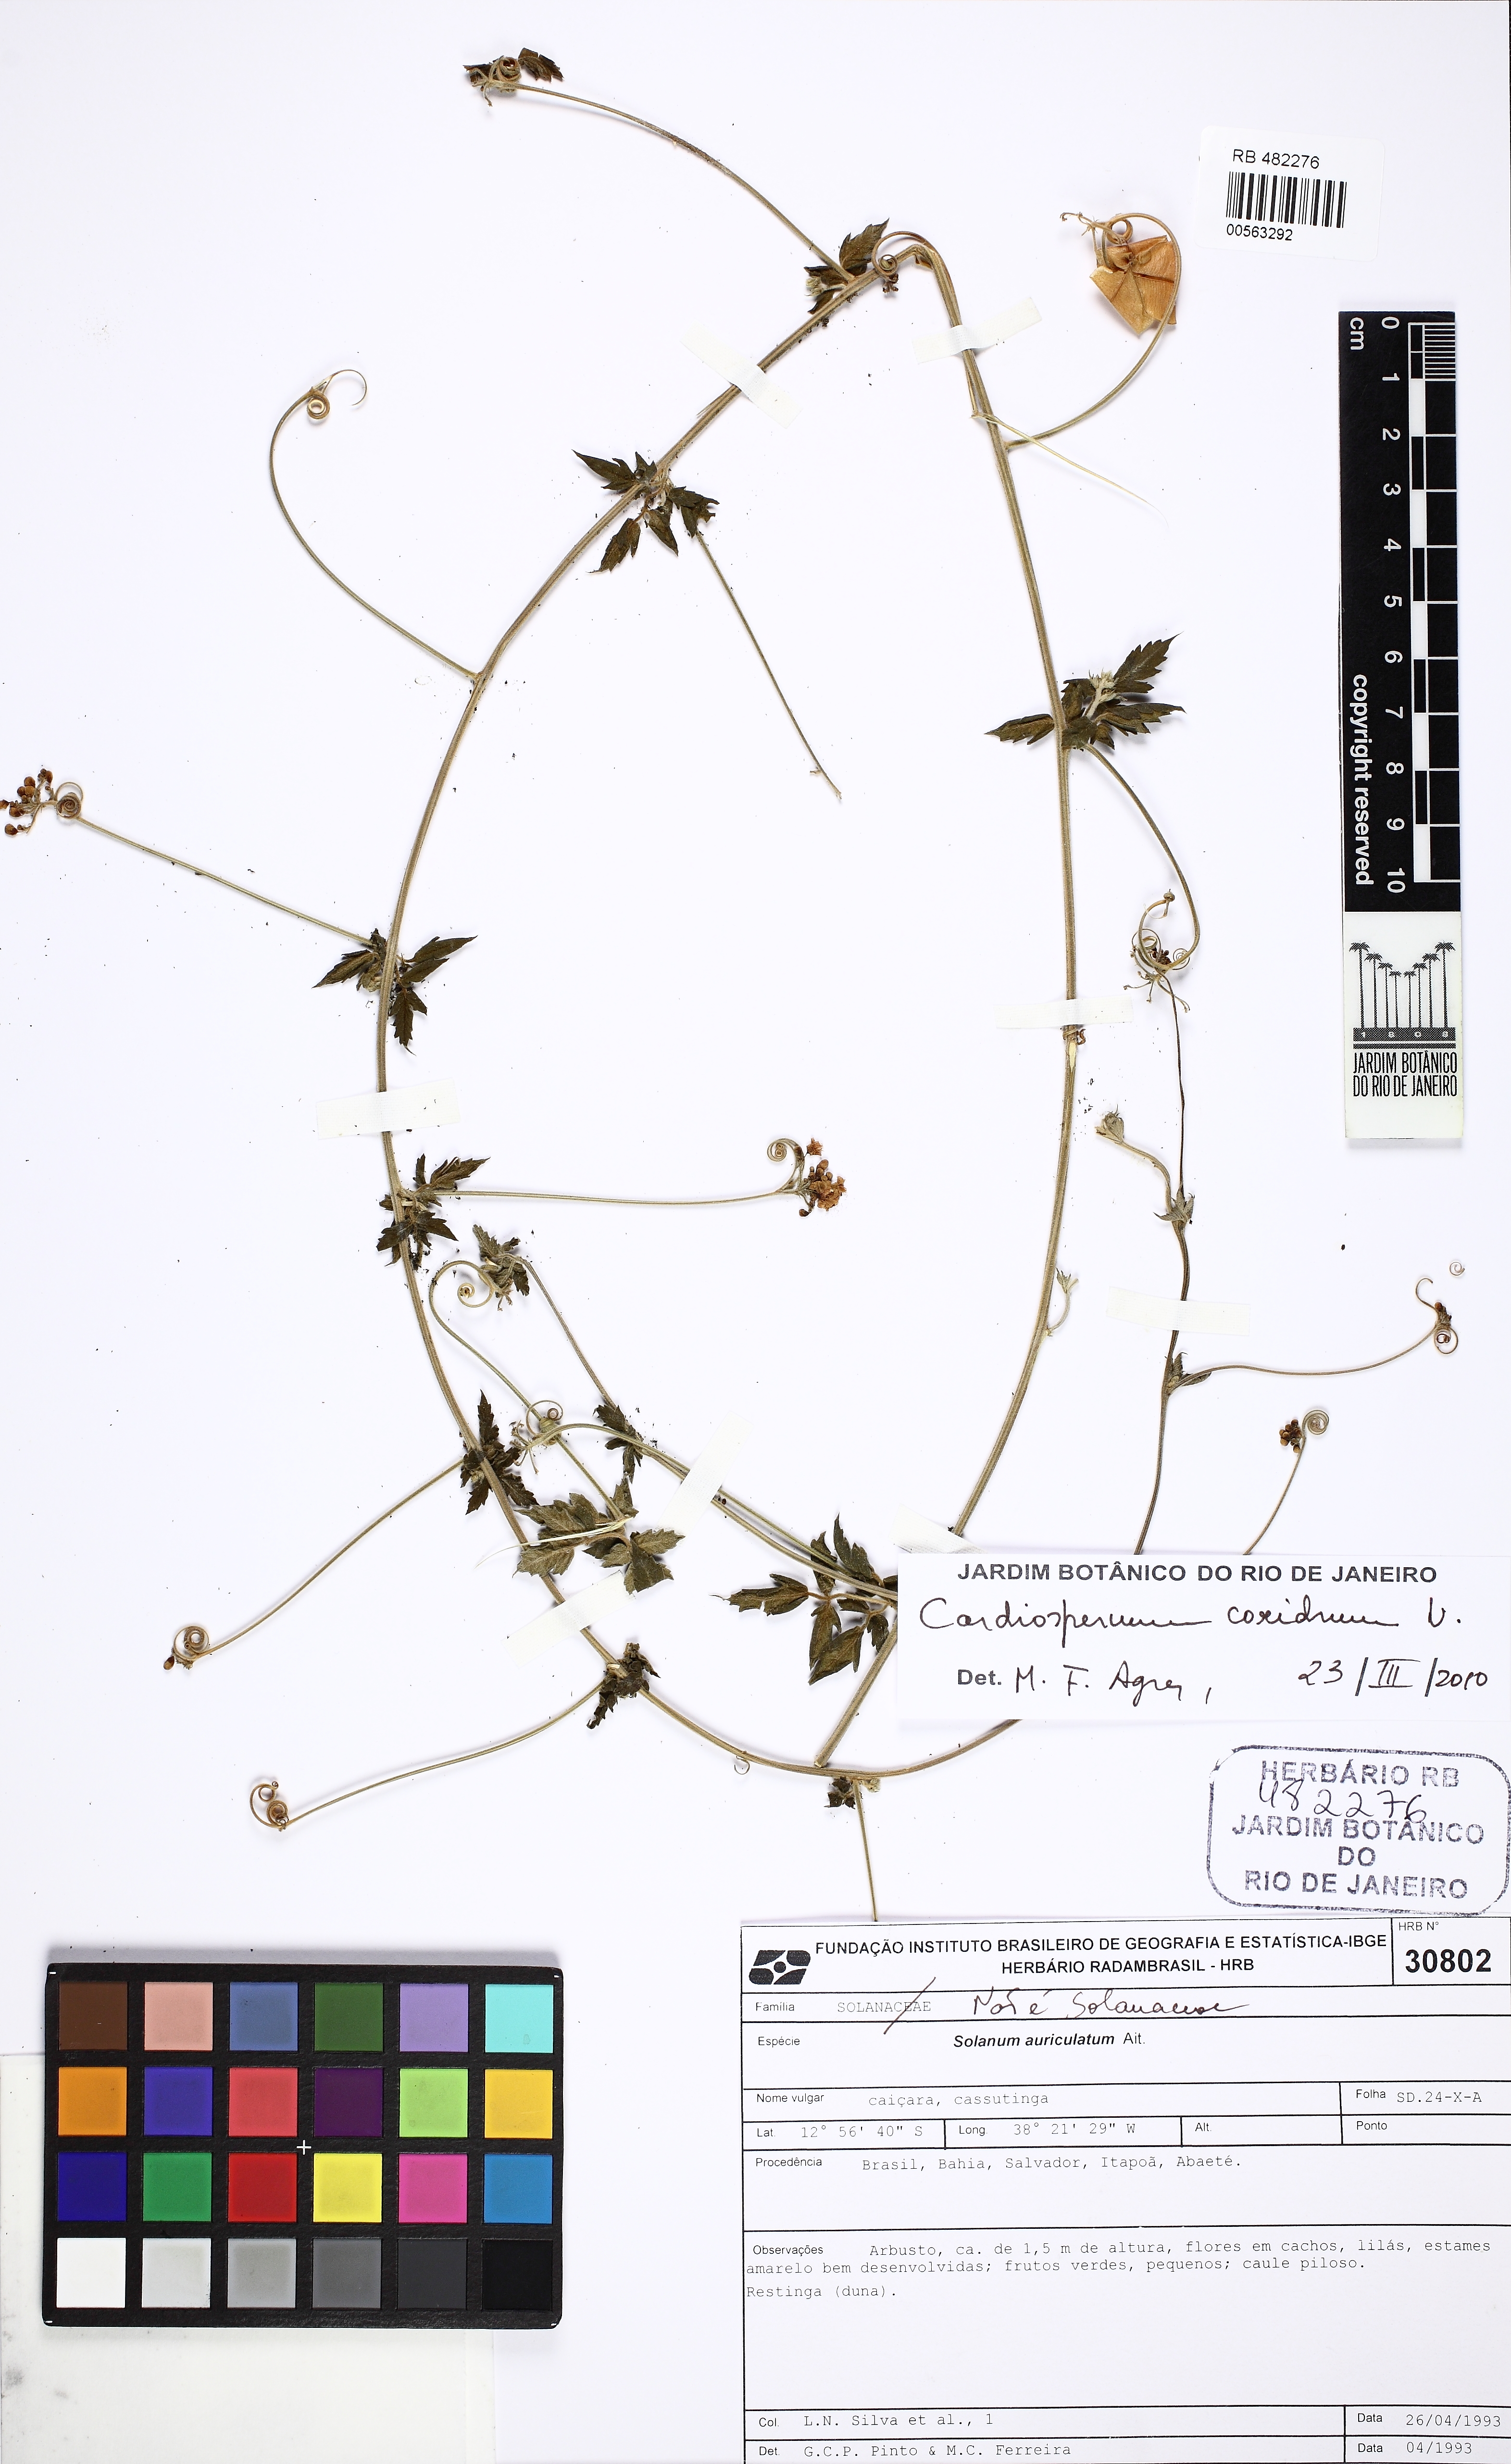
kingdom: Plantae
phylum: Tracheophyta
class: Magnoliopsida
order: Sapindales
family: Sapindaceae
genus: Cardiospermum
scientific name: Cardiospermum corindum
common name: Faux persil
